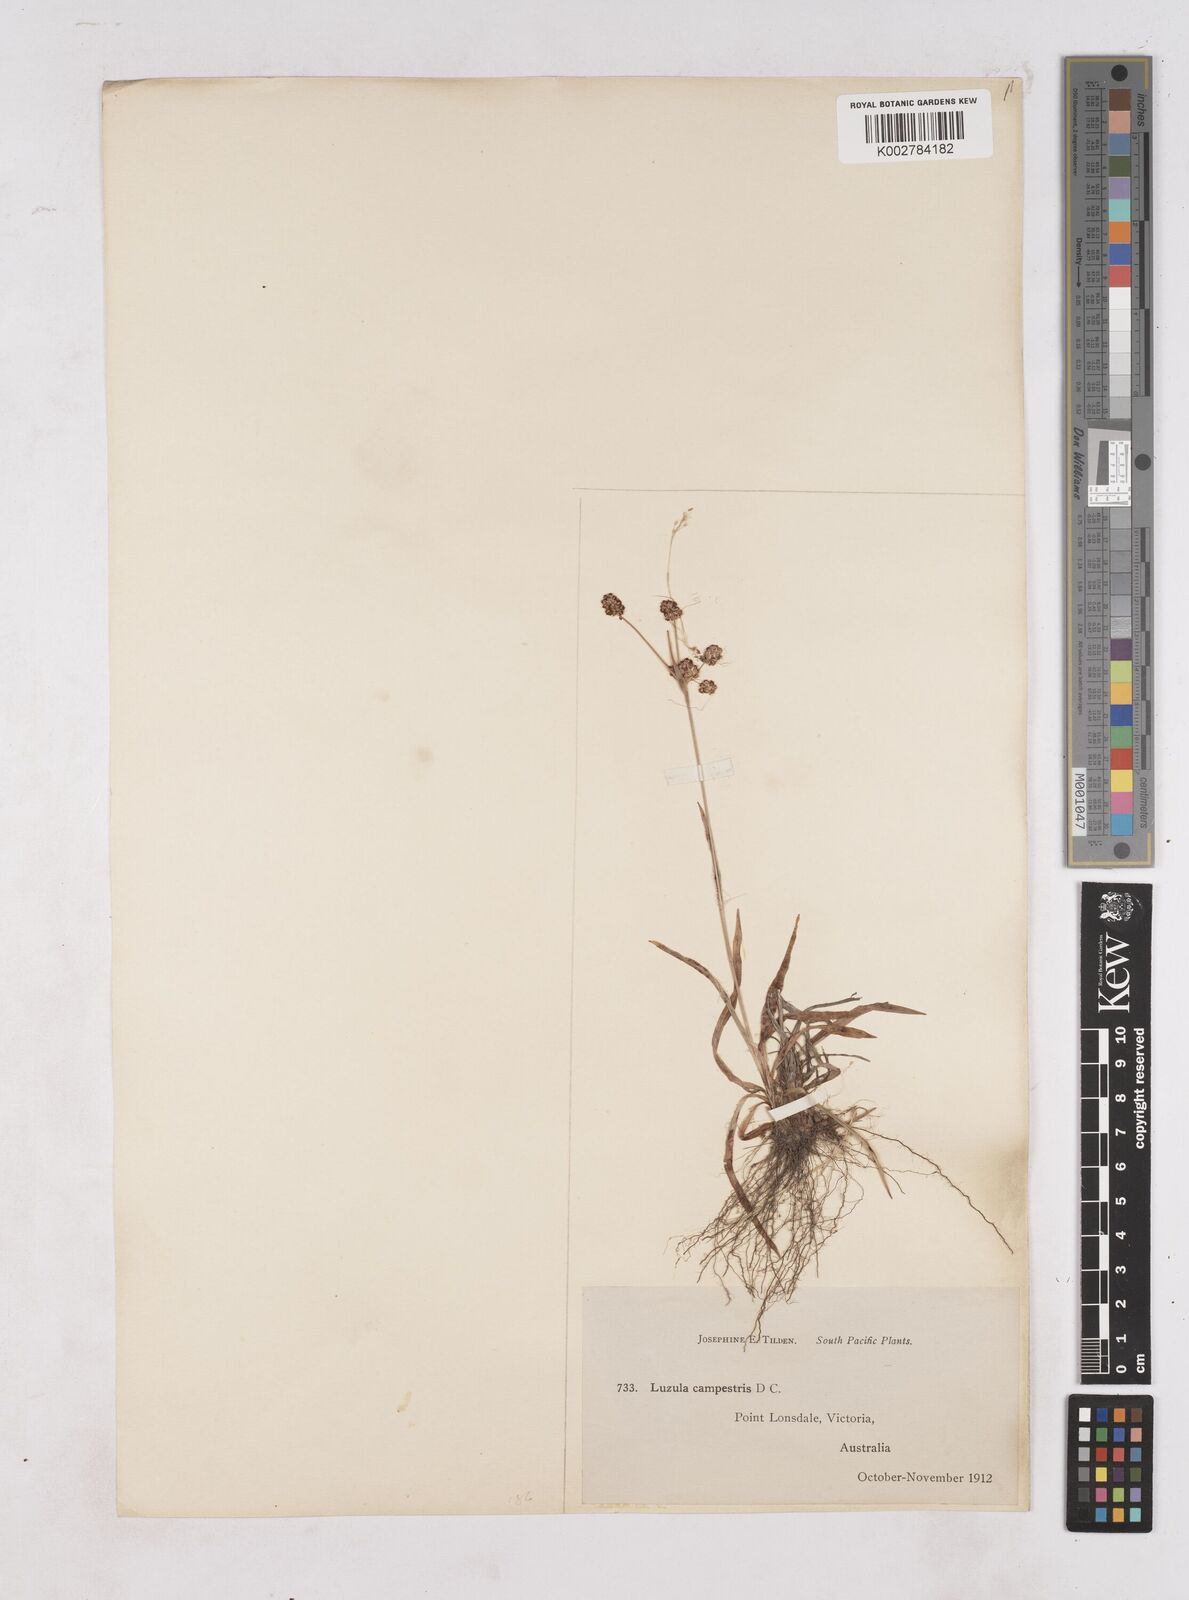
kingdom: Plantae
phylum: Tracheophyta
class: Liliopsida
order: Poales
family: Juncaceae
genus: Luzula
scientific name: Luzula campestris
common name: Field wood-rush
